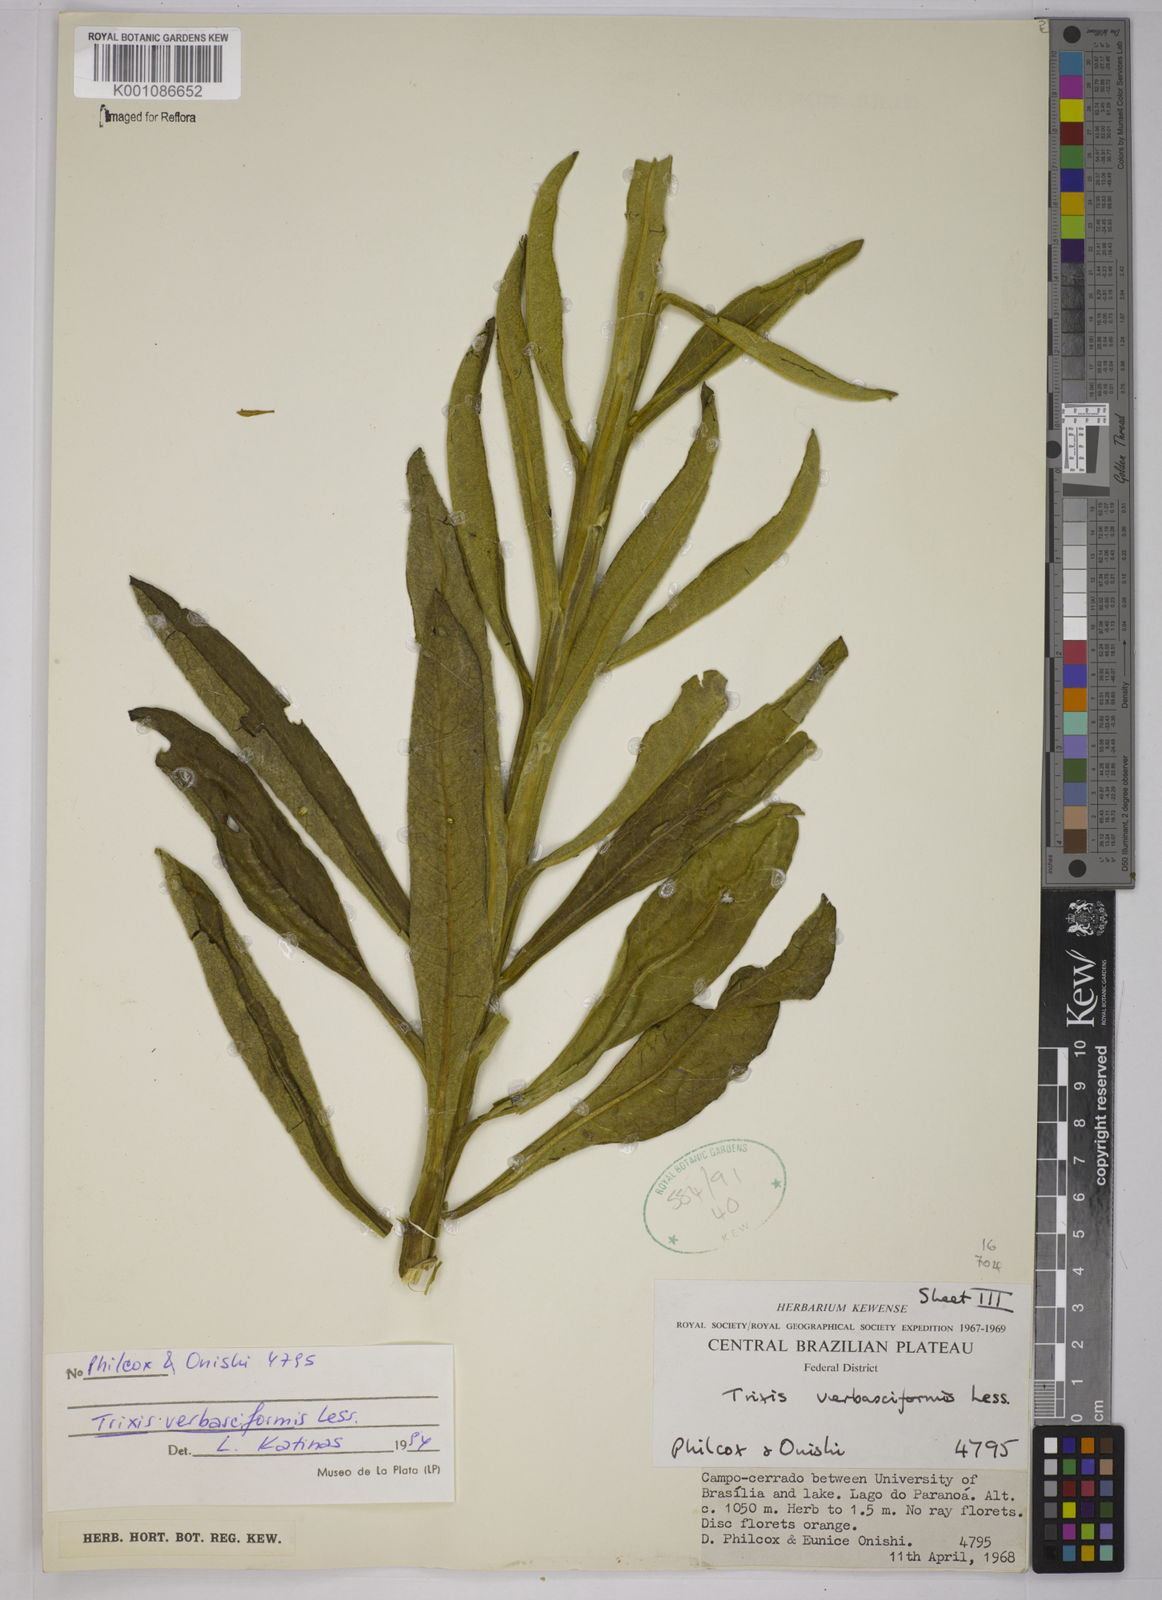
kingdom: Plantae
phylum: Tracheophyta
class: Magnoliopsida
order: Asterales
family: Asteraceae
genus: Trixis
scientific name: Trixis nobilis
